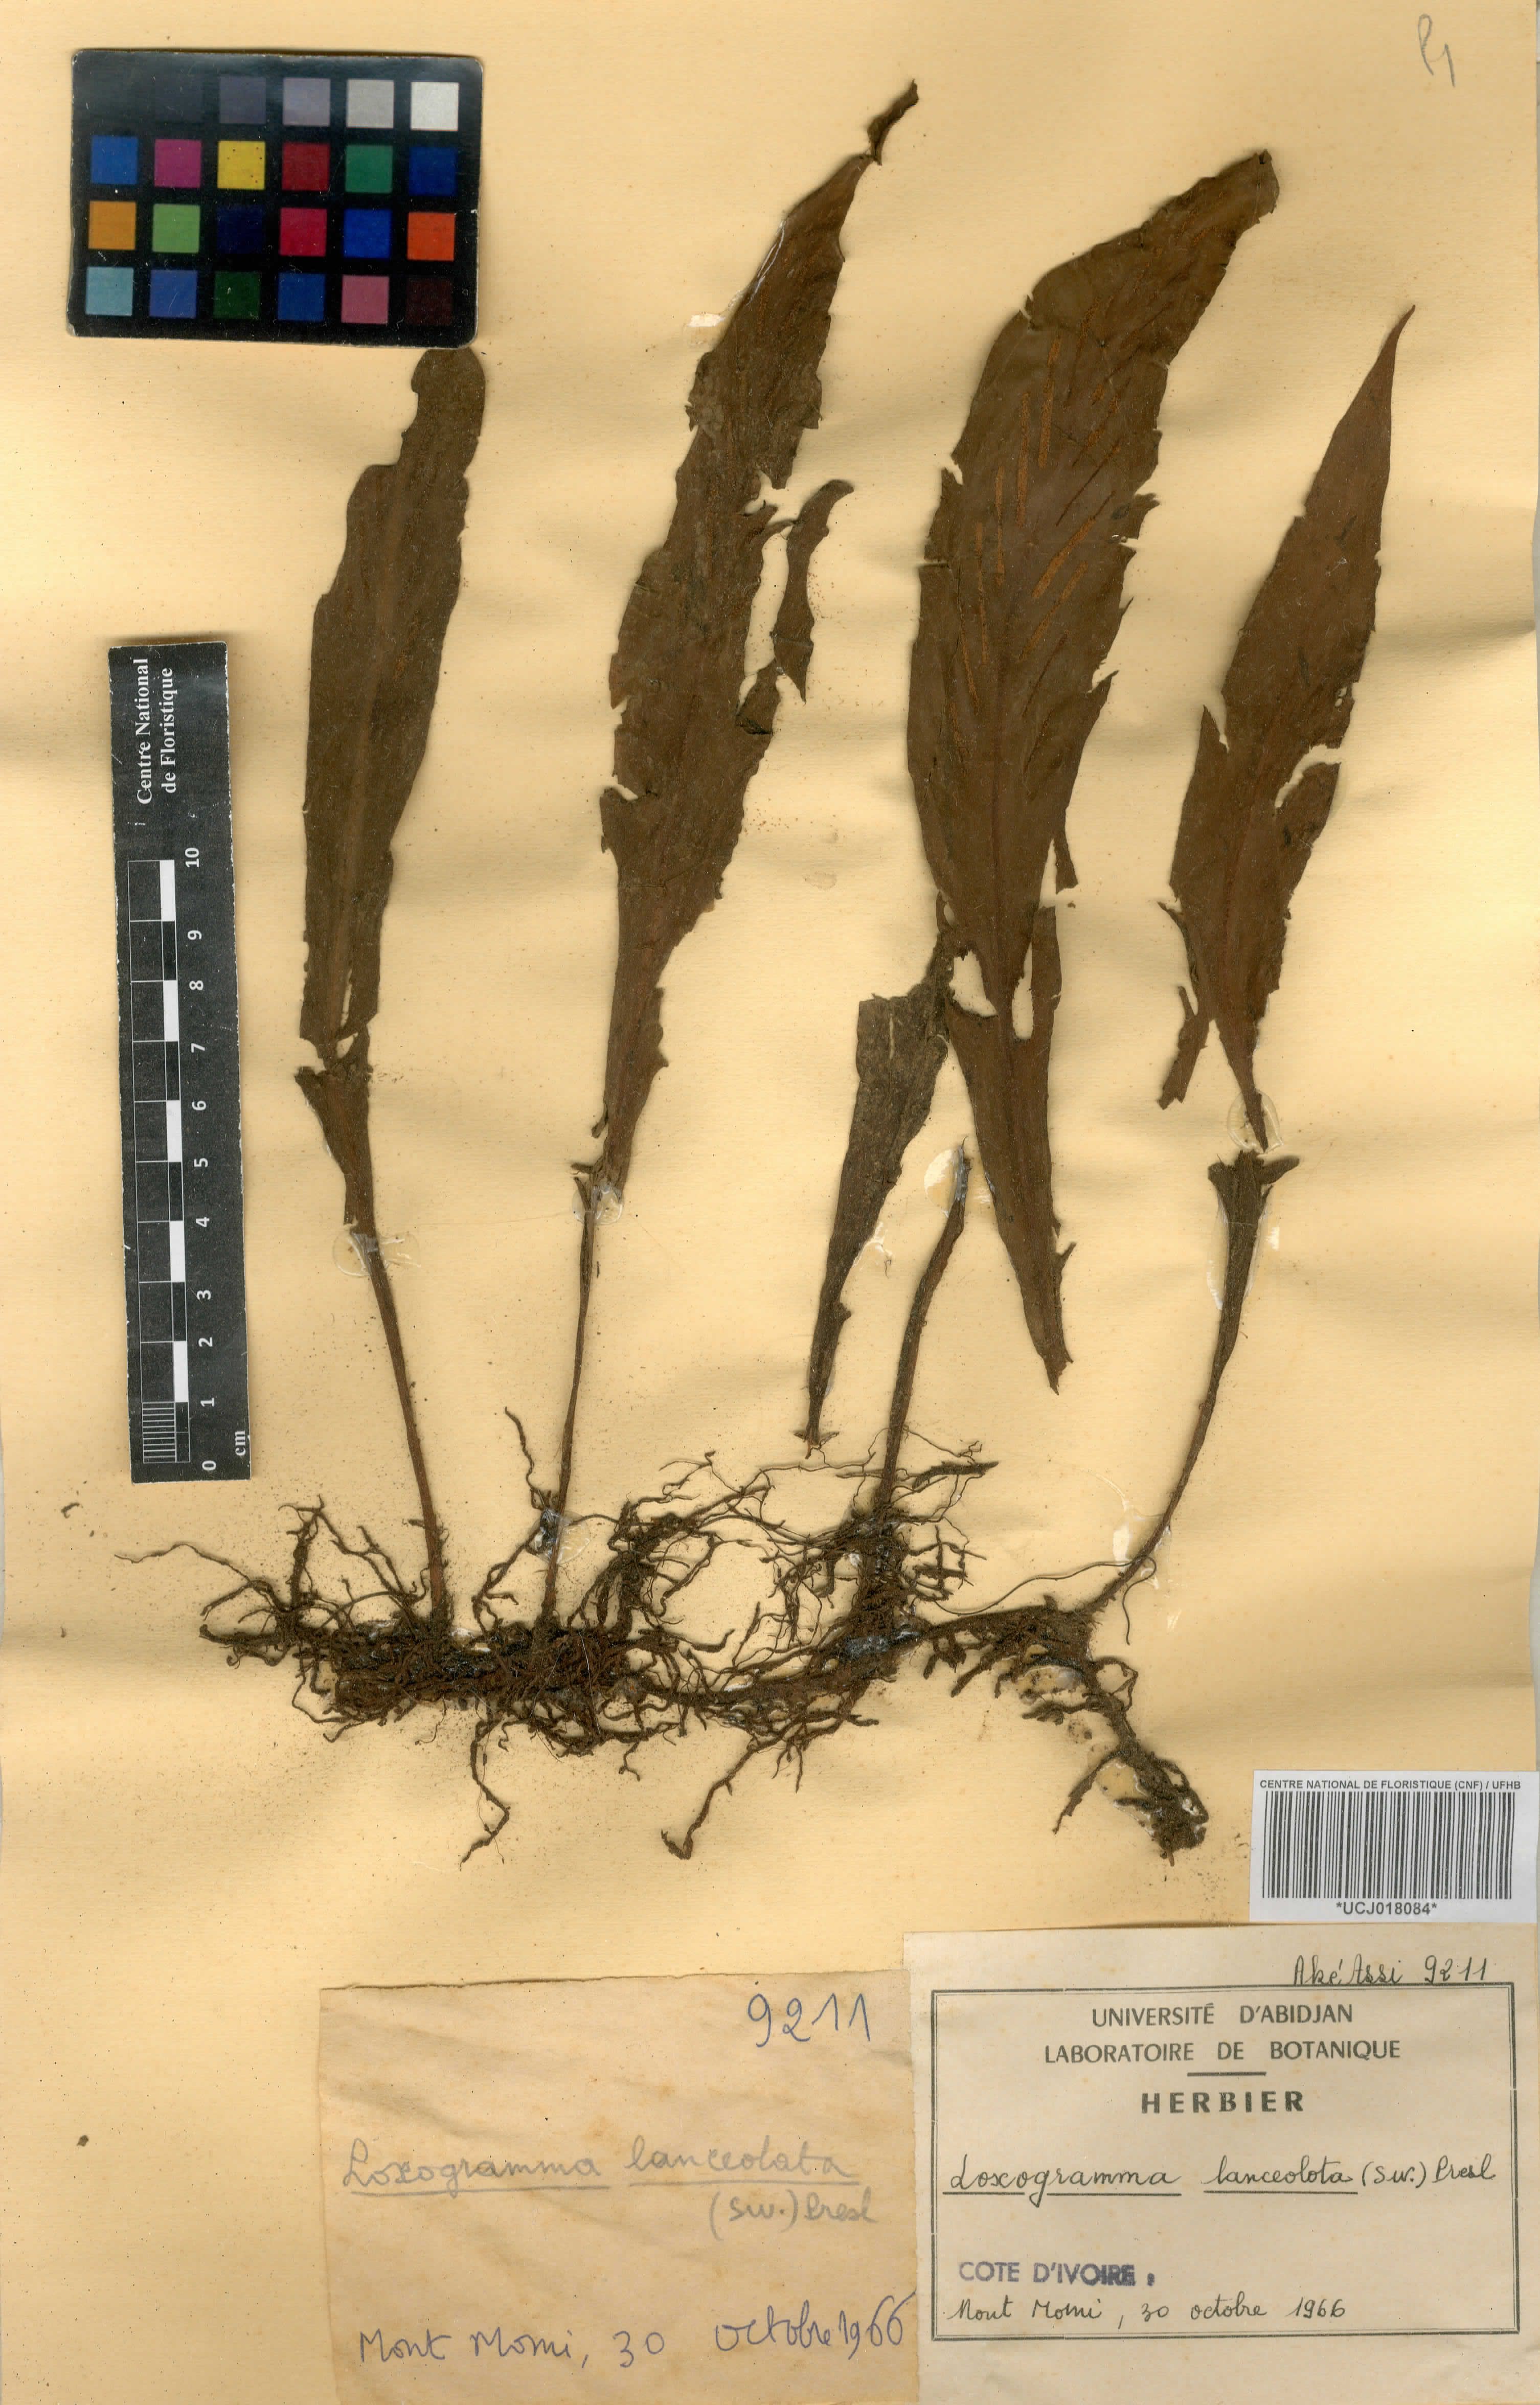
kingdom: Plantae
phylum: Tracheophyta
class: Polypodiopsida
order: Polypodiales
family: Polypodiaceae
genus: Loxogramme
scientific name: Loxogramme lanceolata
